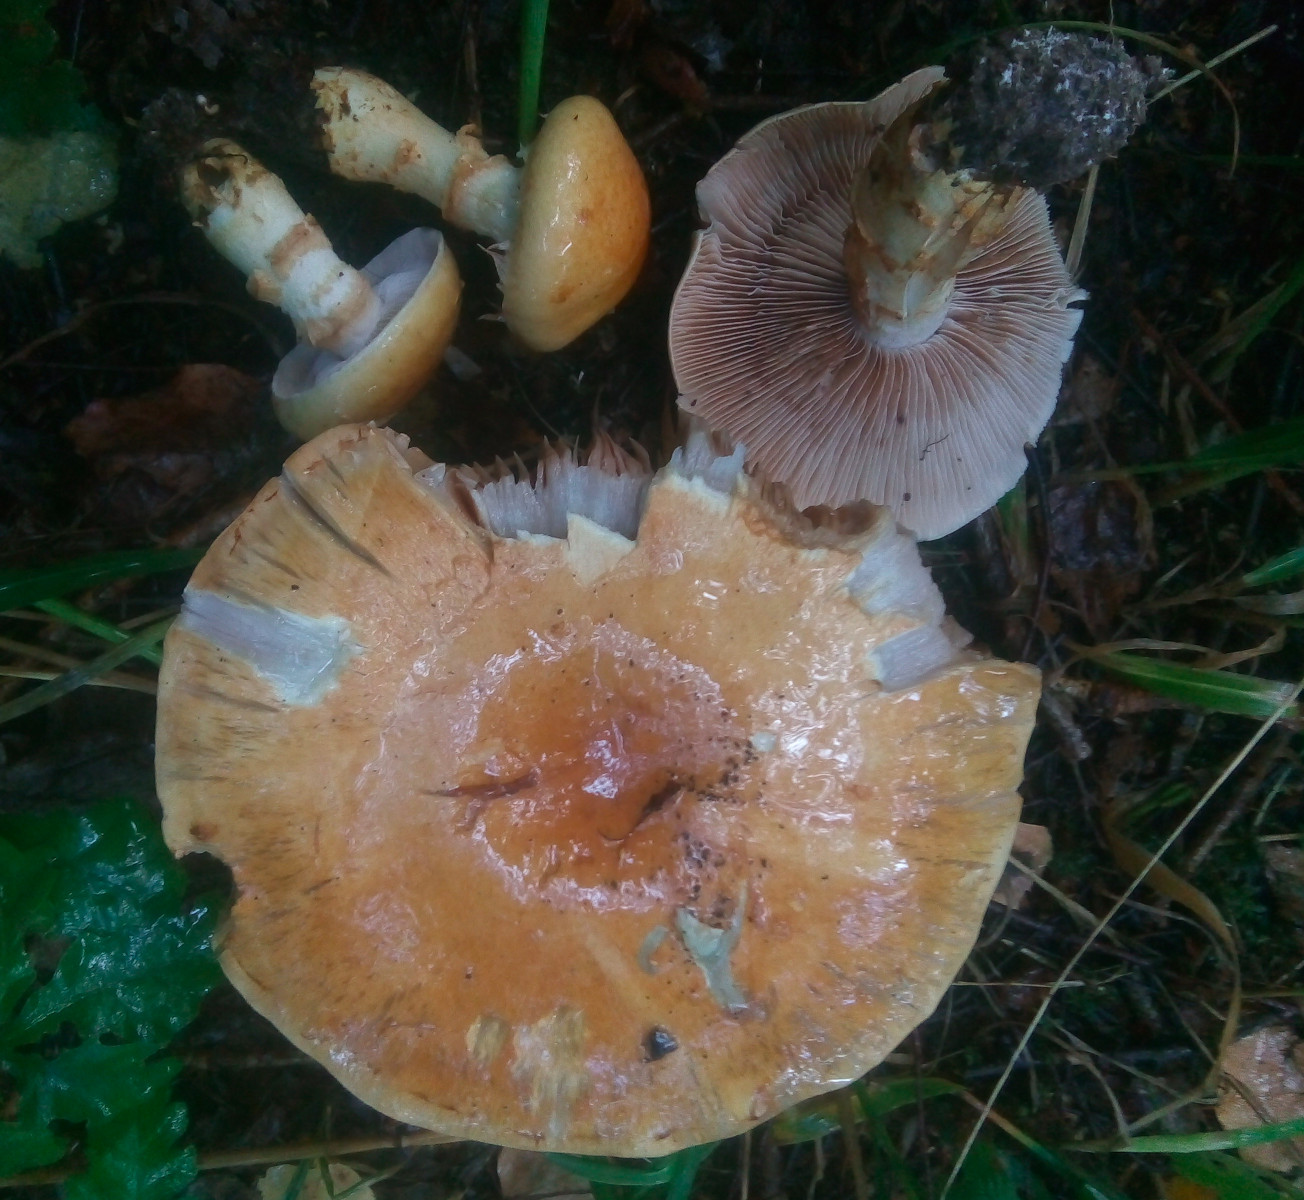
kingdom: Fungi
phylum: Basidiomycota
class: Agaricomycetes
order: Agaricales
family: Cortinariaceae
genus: Phlegmacium
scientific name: Phlegmacium triumphans
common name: gulbæltet slørhat
